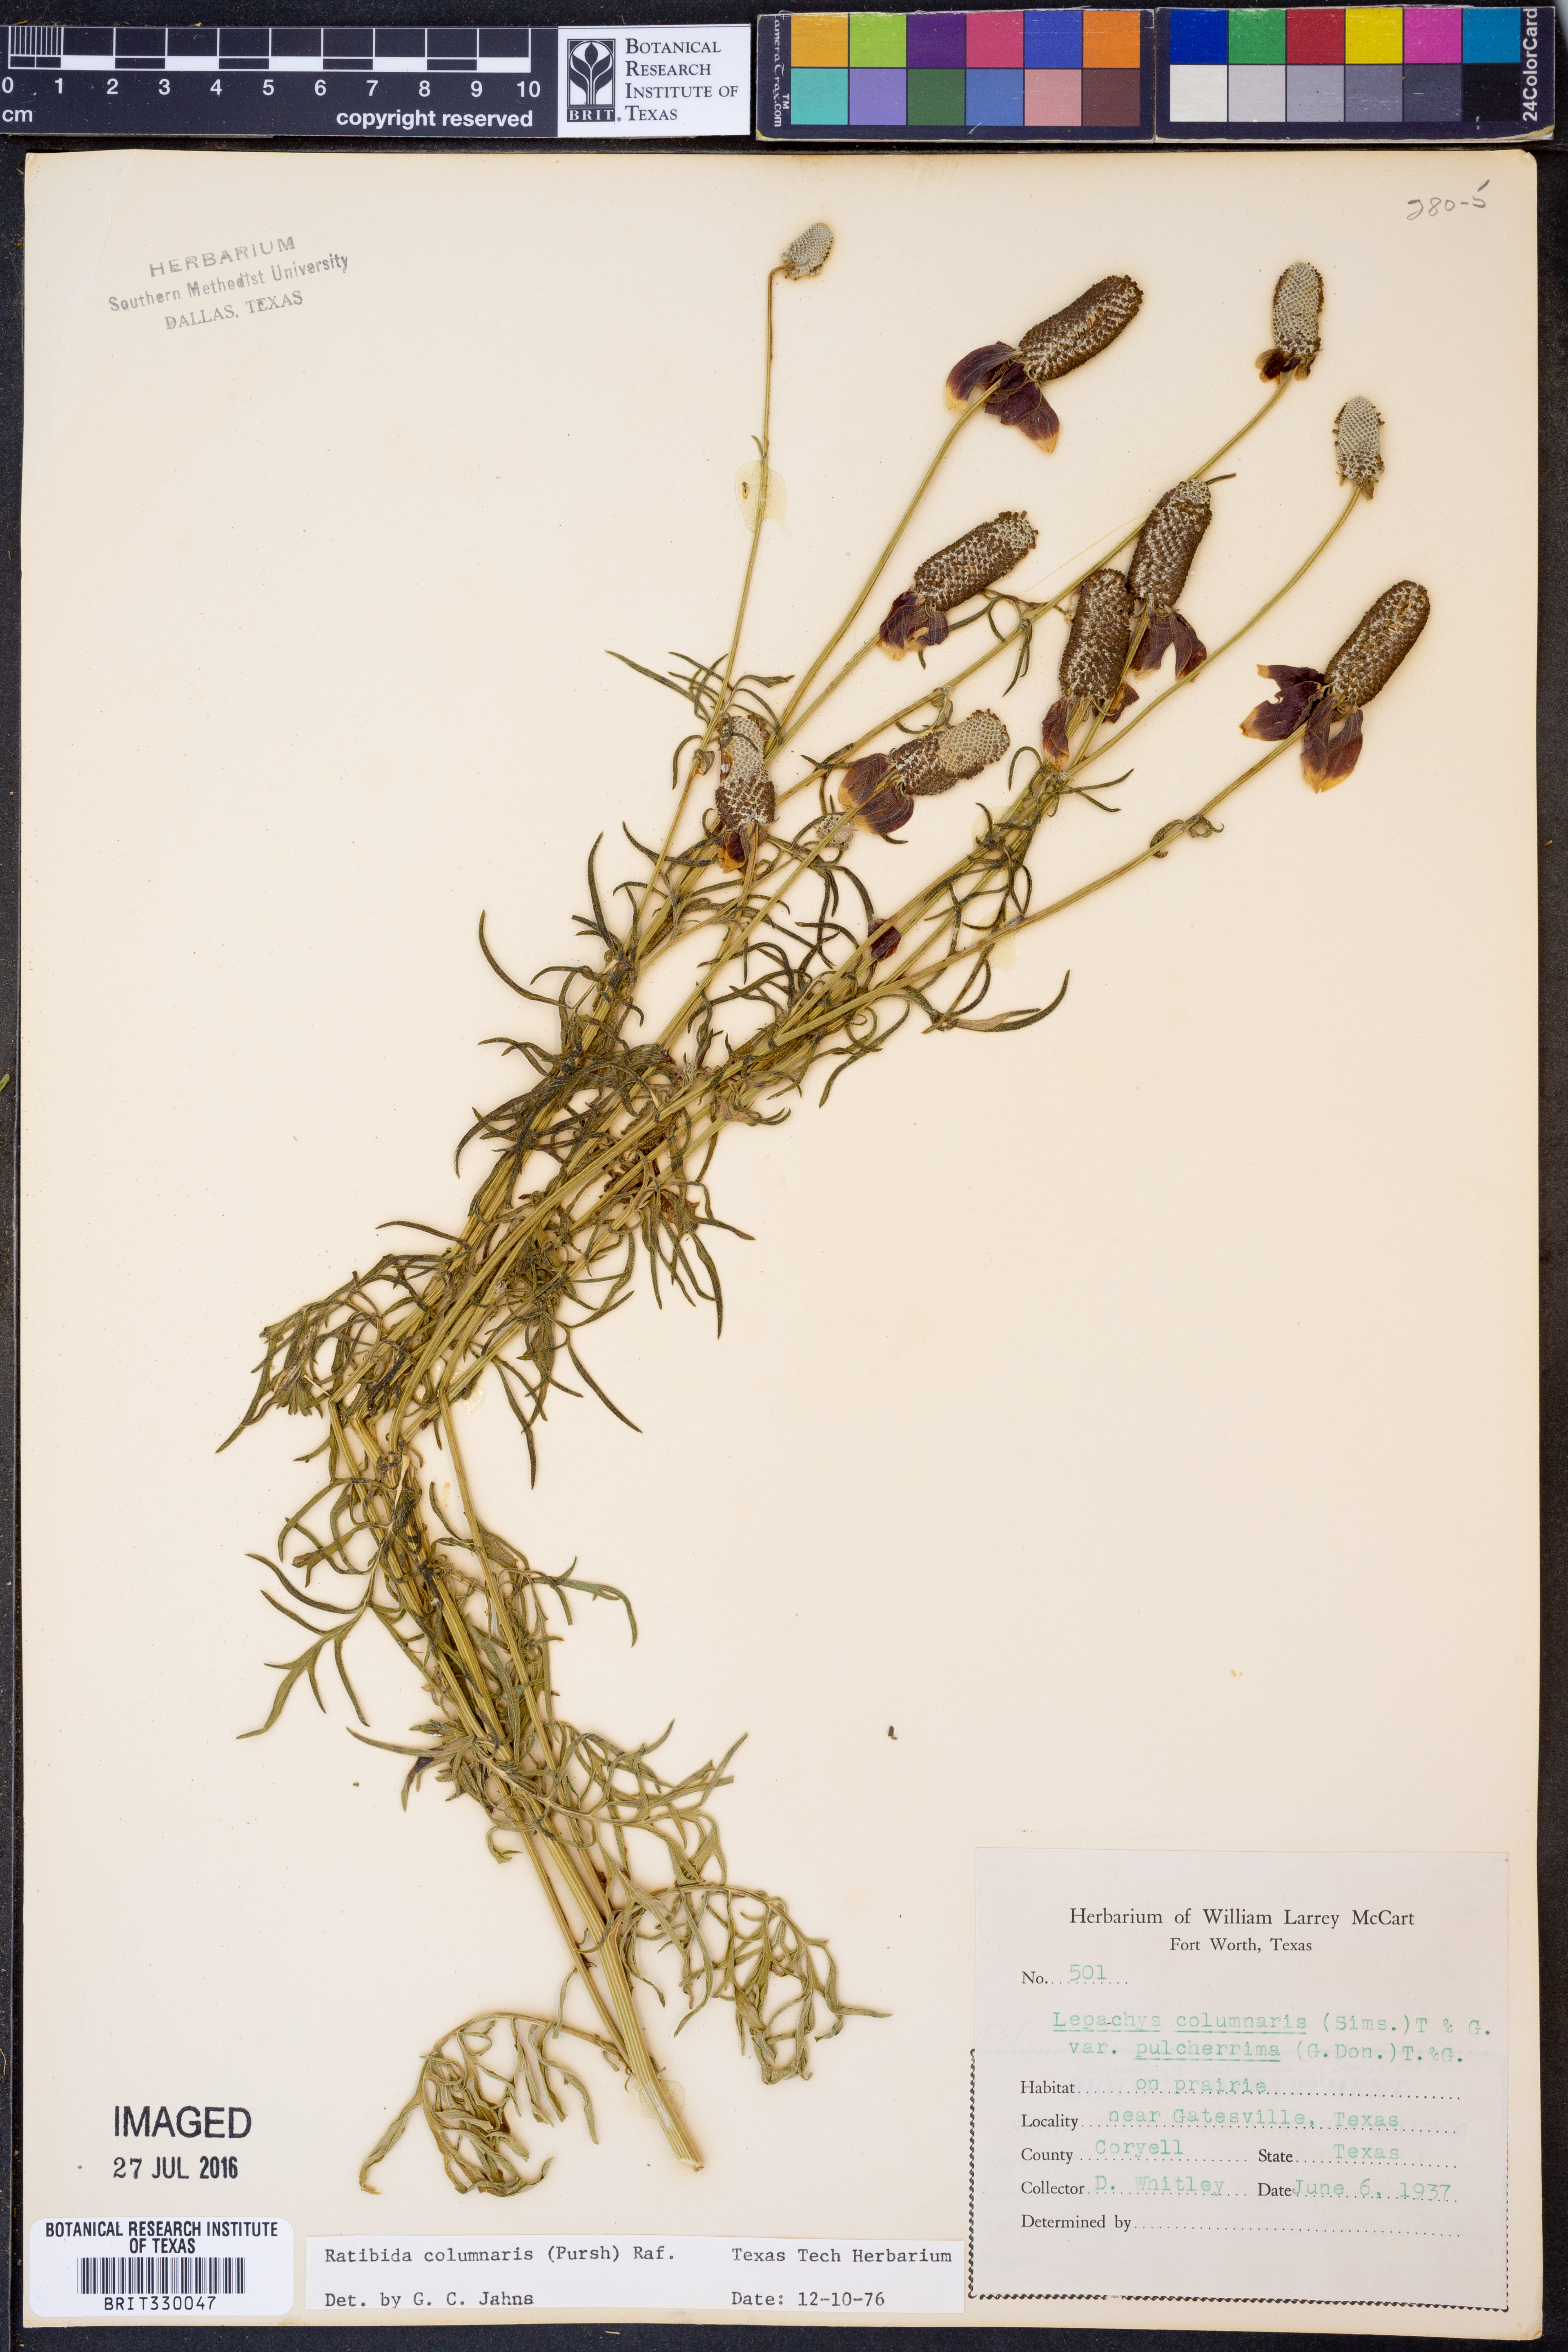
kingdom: Plantae
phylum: Tracheophyta
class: Magnoliopsida
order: Asterales
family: Asteraceae
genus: Ratibida
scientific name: Ratibida columnifera
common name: Prairie coneflower
